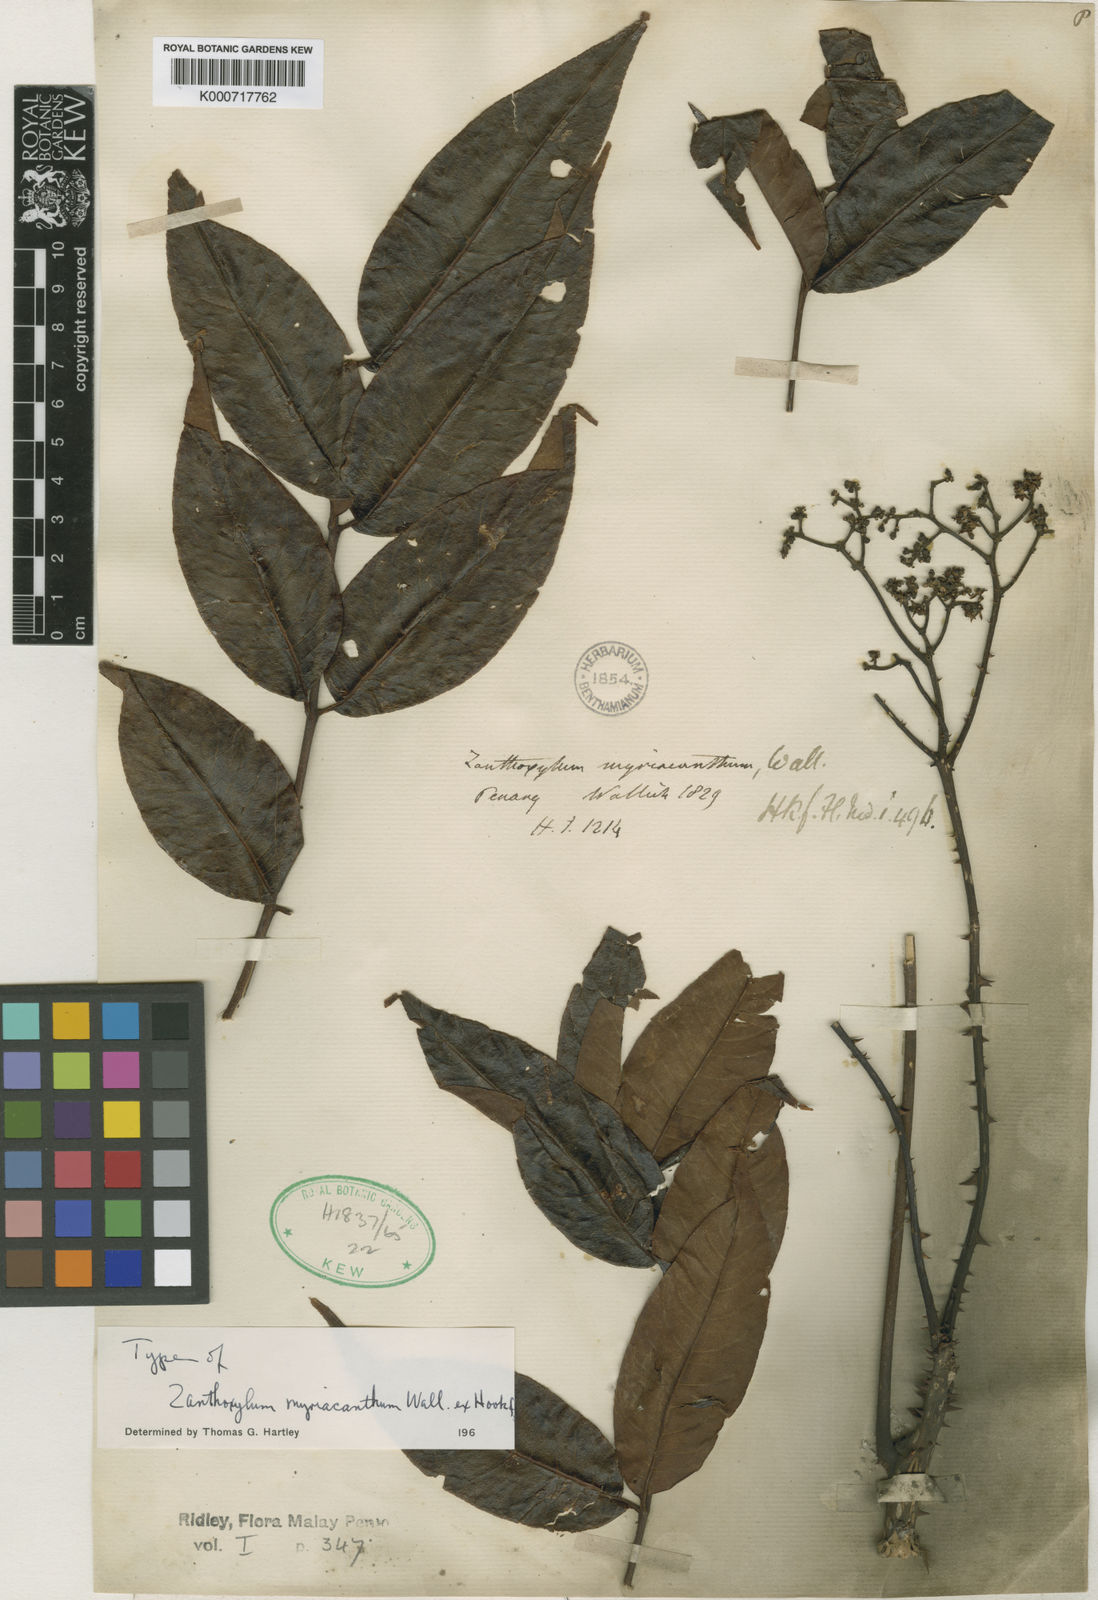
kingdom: Plantae
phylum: Tracheophyta
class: Magnoliopsida
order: Sapindales
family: Rutaceae
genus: Zanthoxylum
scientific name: Zanthoxylum myriacanthum
